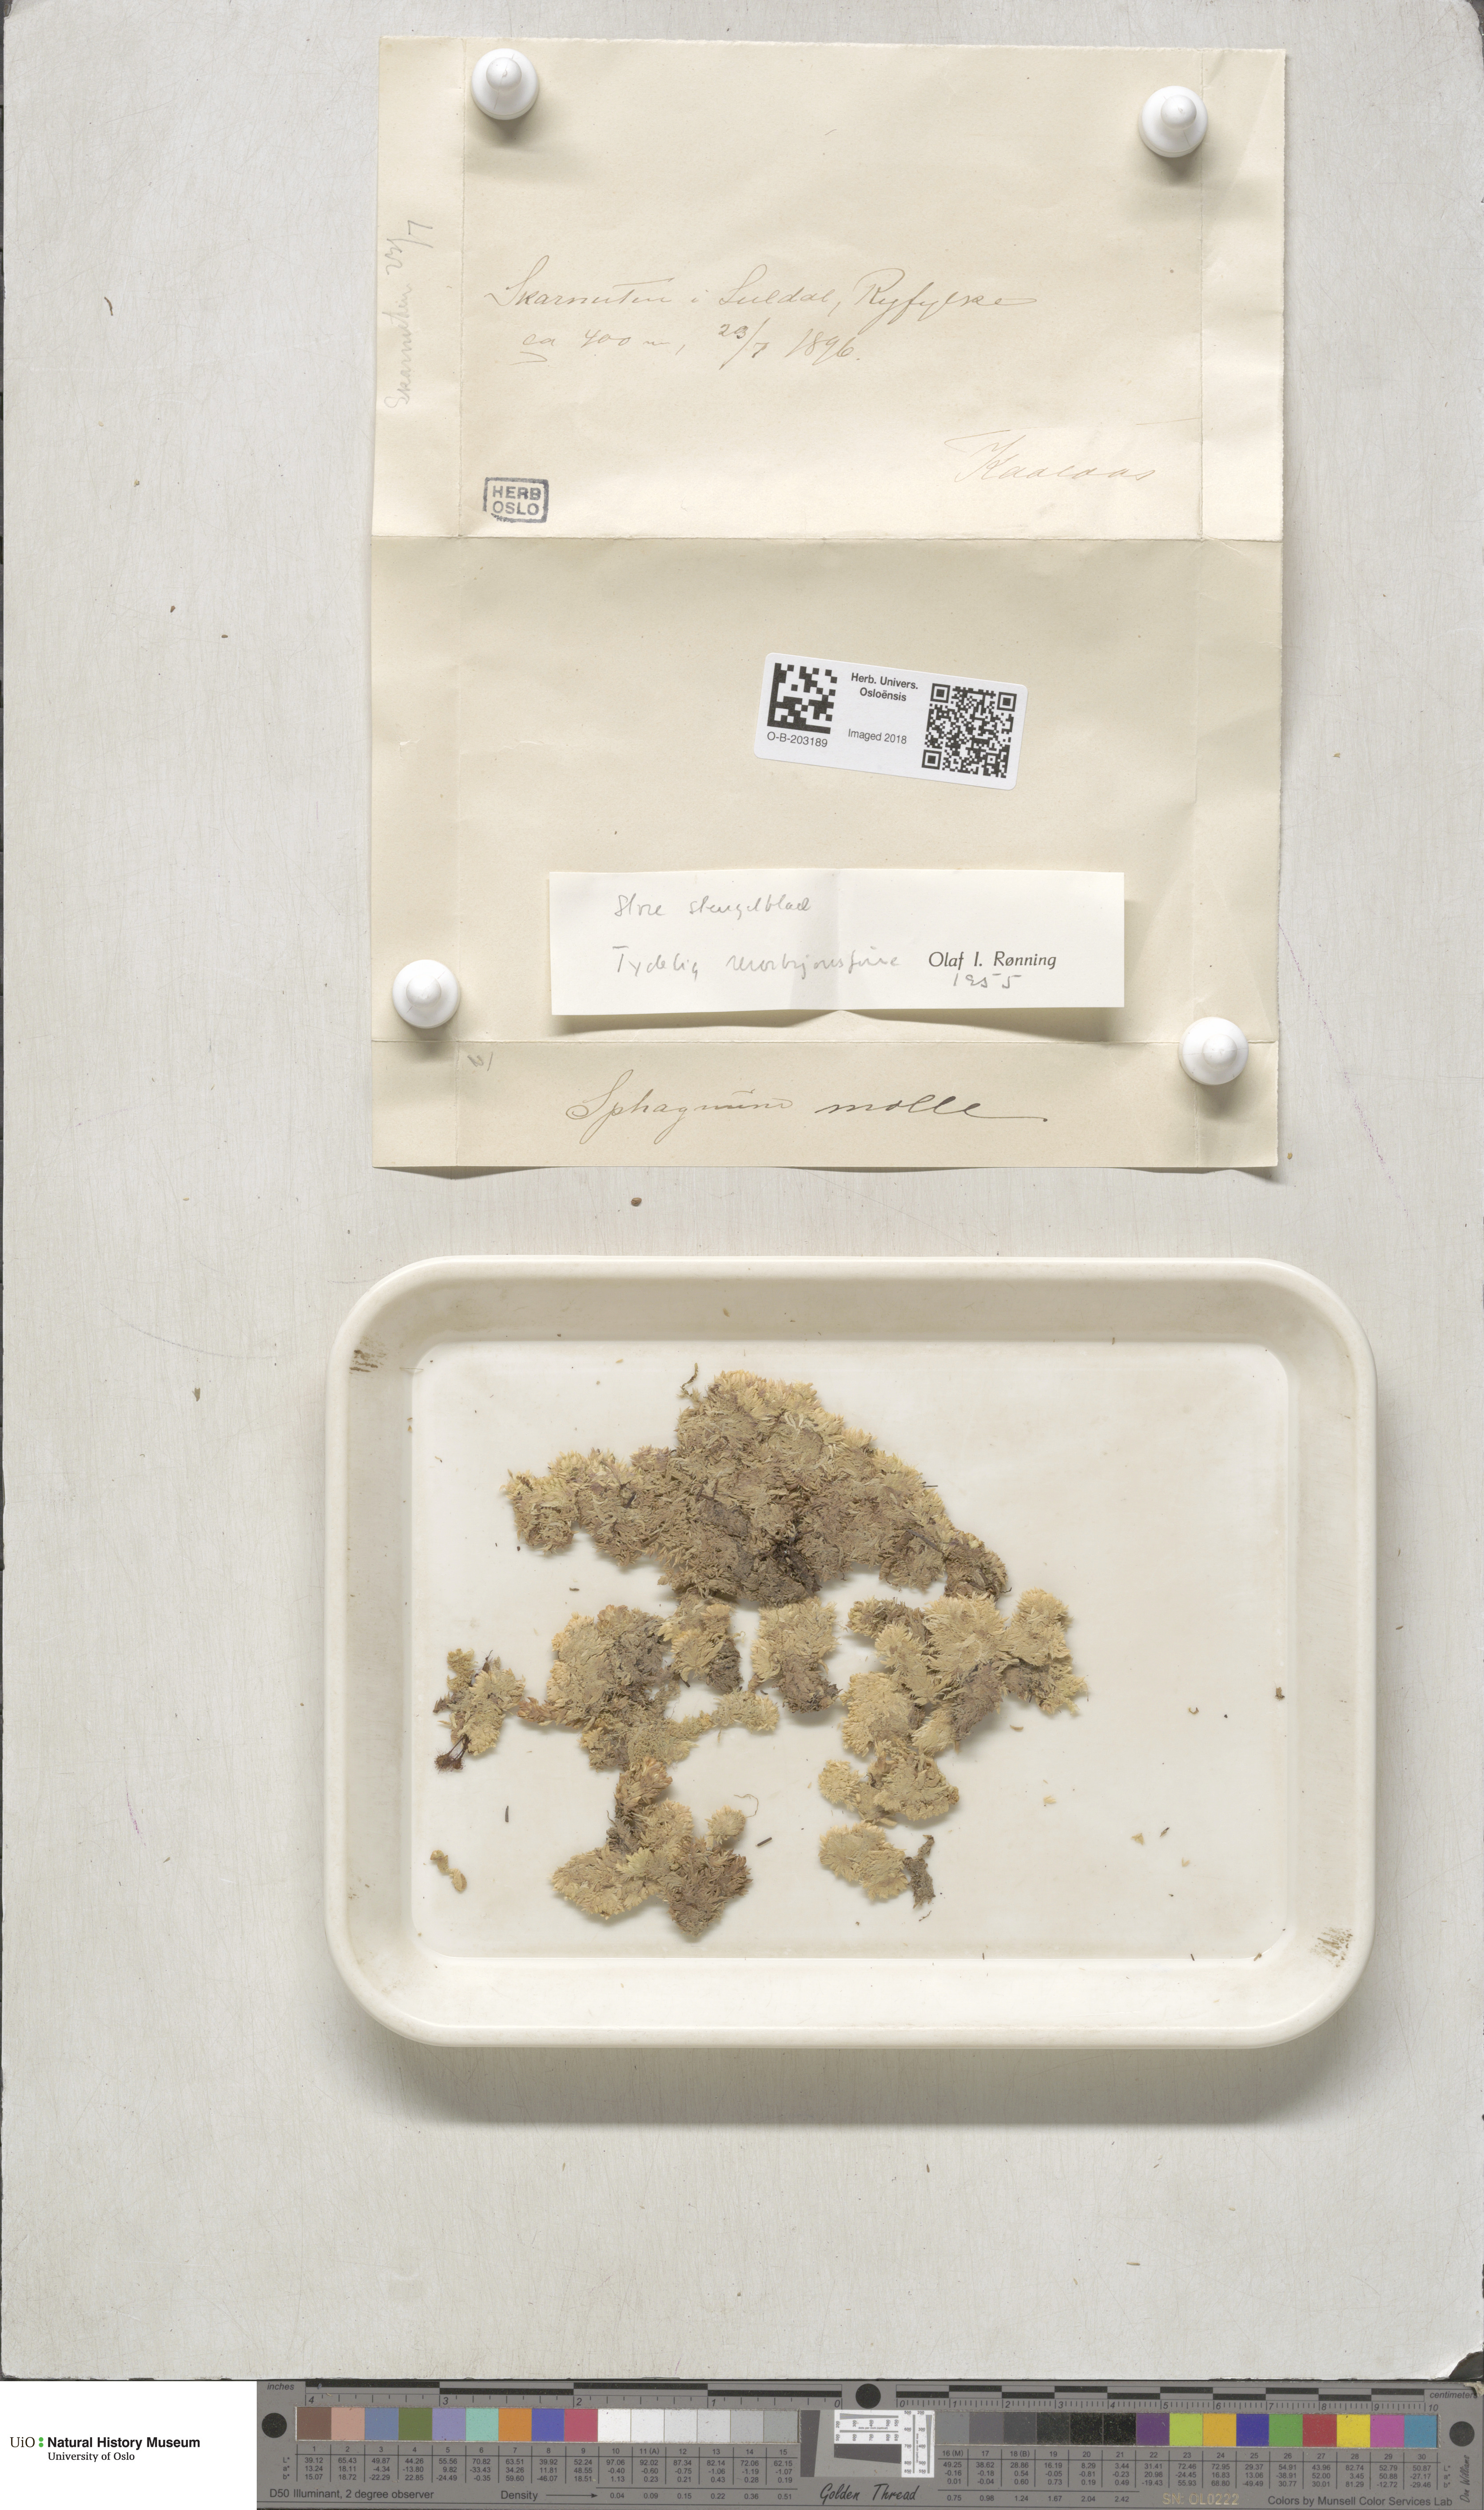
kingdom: Plantae
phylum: Bryophyta
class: Sphagnopsida
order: Sphagnales
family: Sphagnaceae
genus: Sphagnum
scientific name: Sphagnum molle
